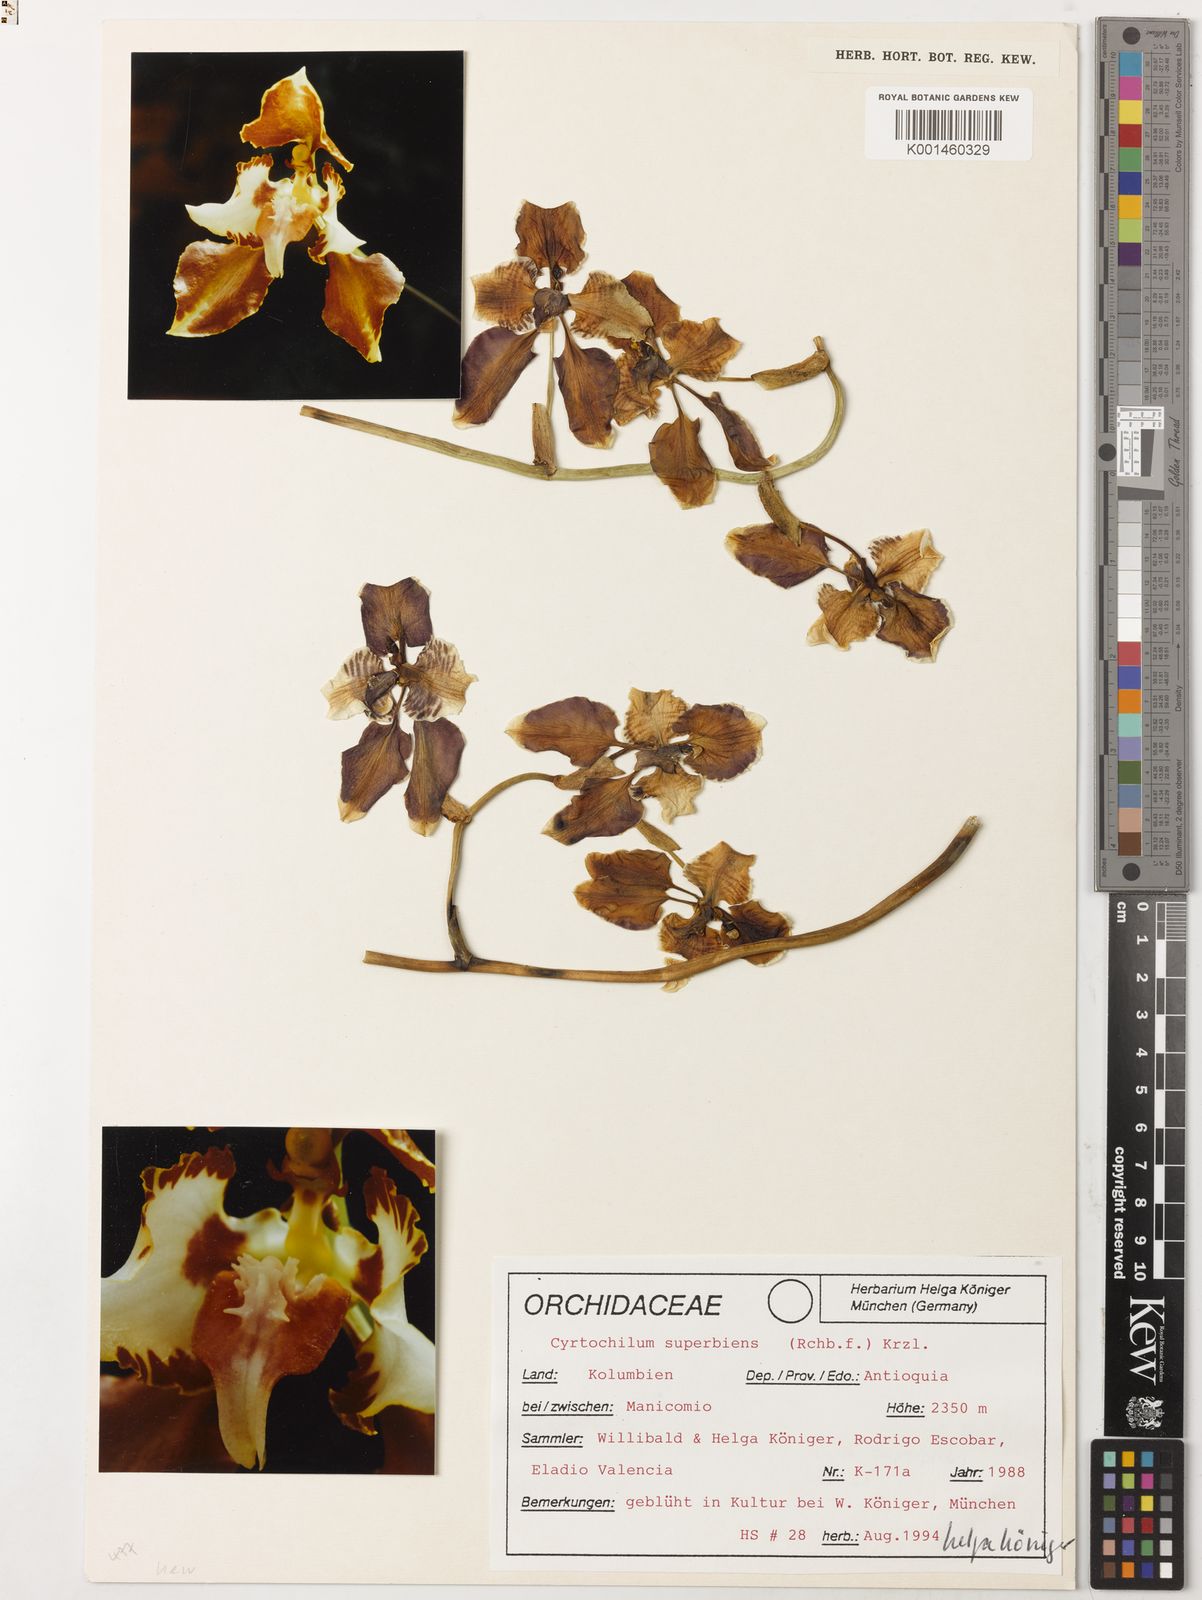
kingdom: Plantae
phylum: Tracheophyta
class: Liliopsida
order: Asparagales
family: Orchidaceae
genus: Cyrtochilum
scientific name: Cyrtochilum halteratum
